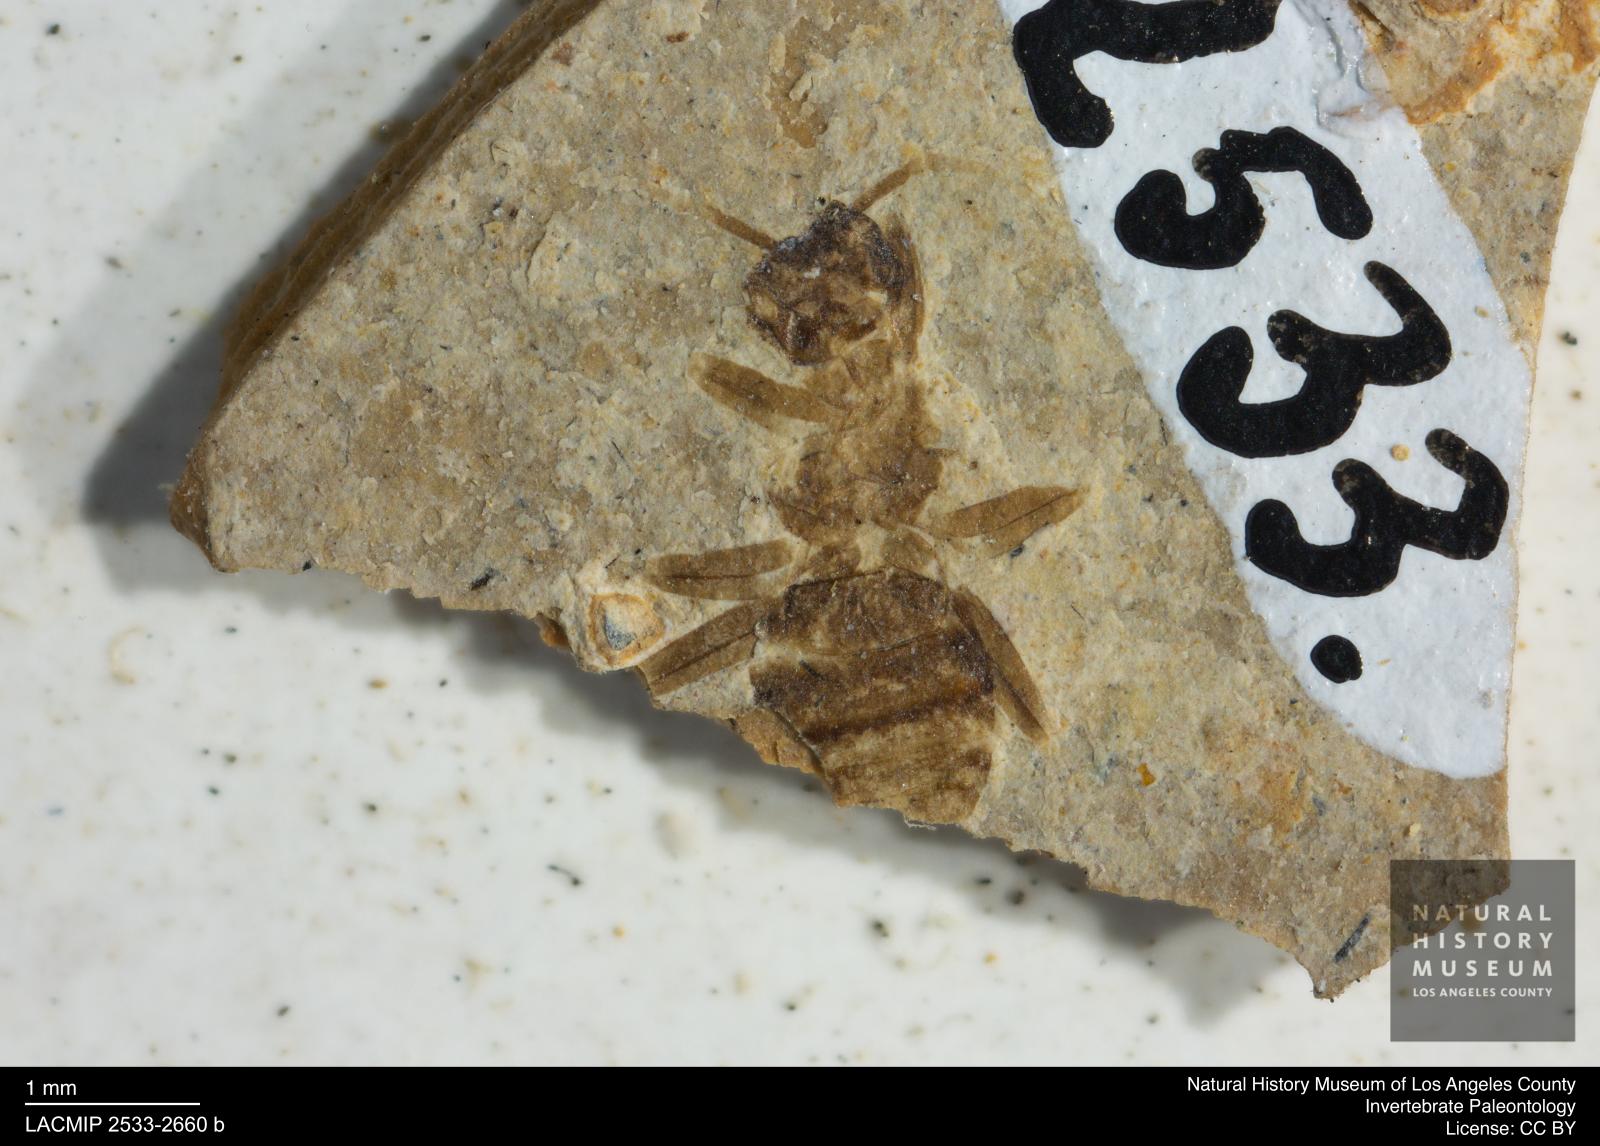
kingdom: Animalia
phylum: Arthropoda
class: Insecta
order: Hymenoptera
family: Formicidae
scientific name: Formicidae
